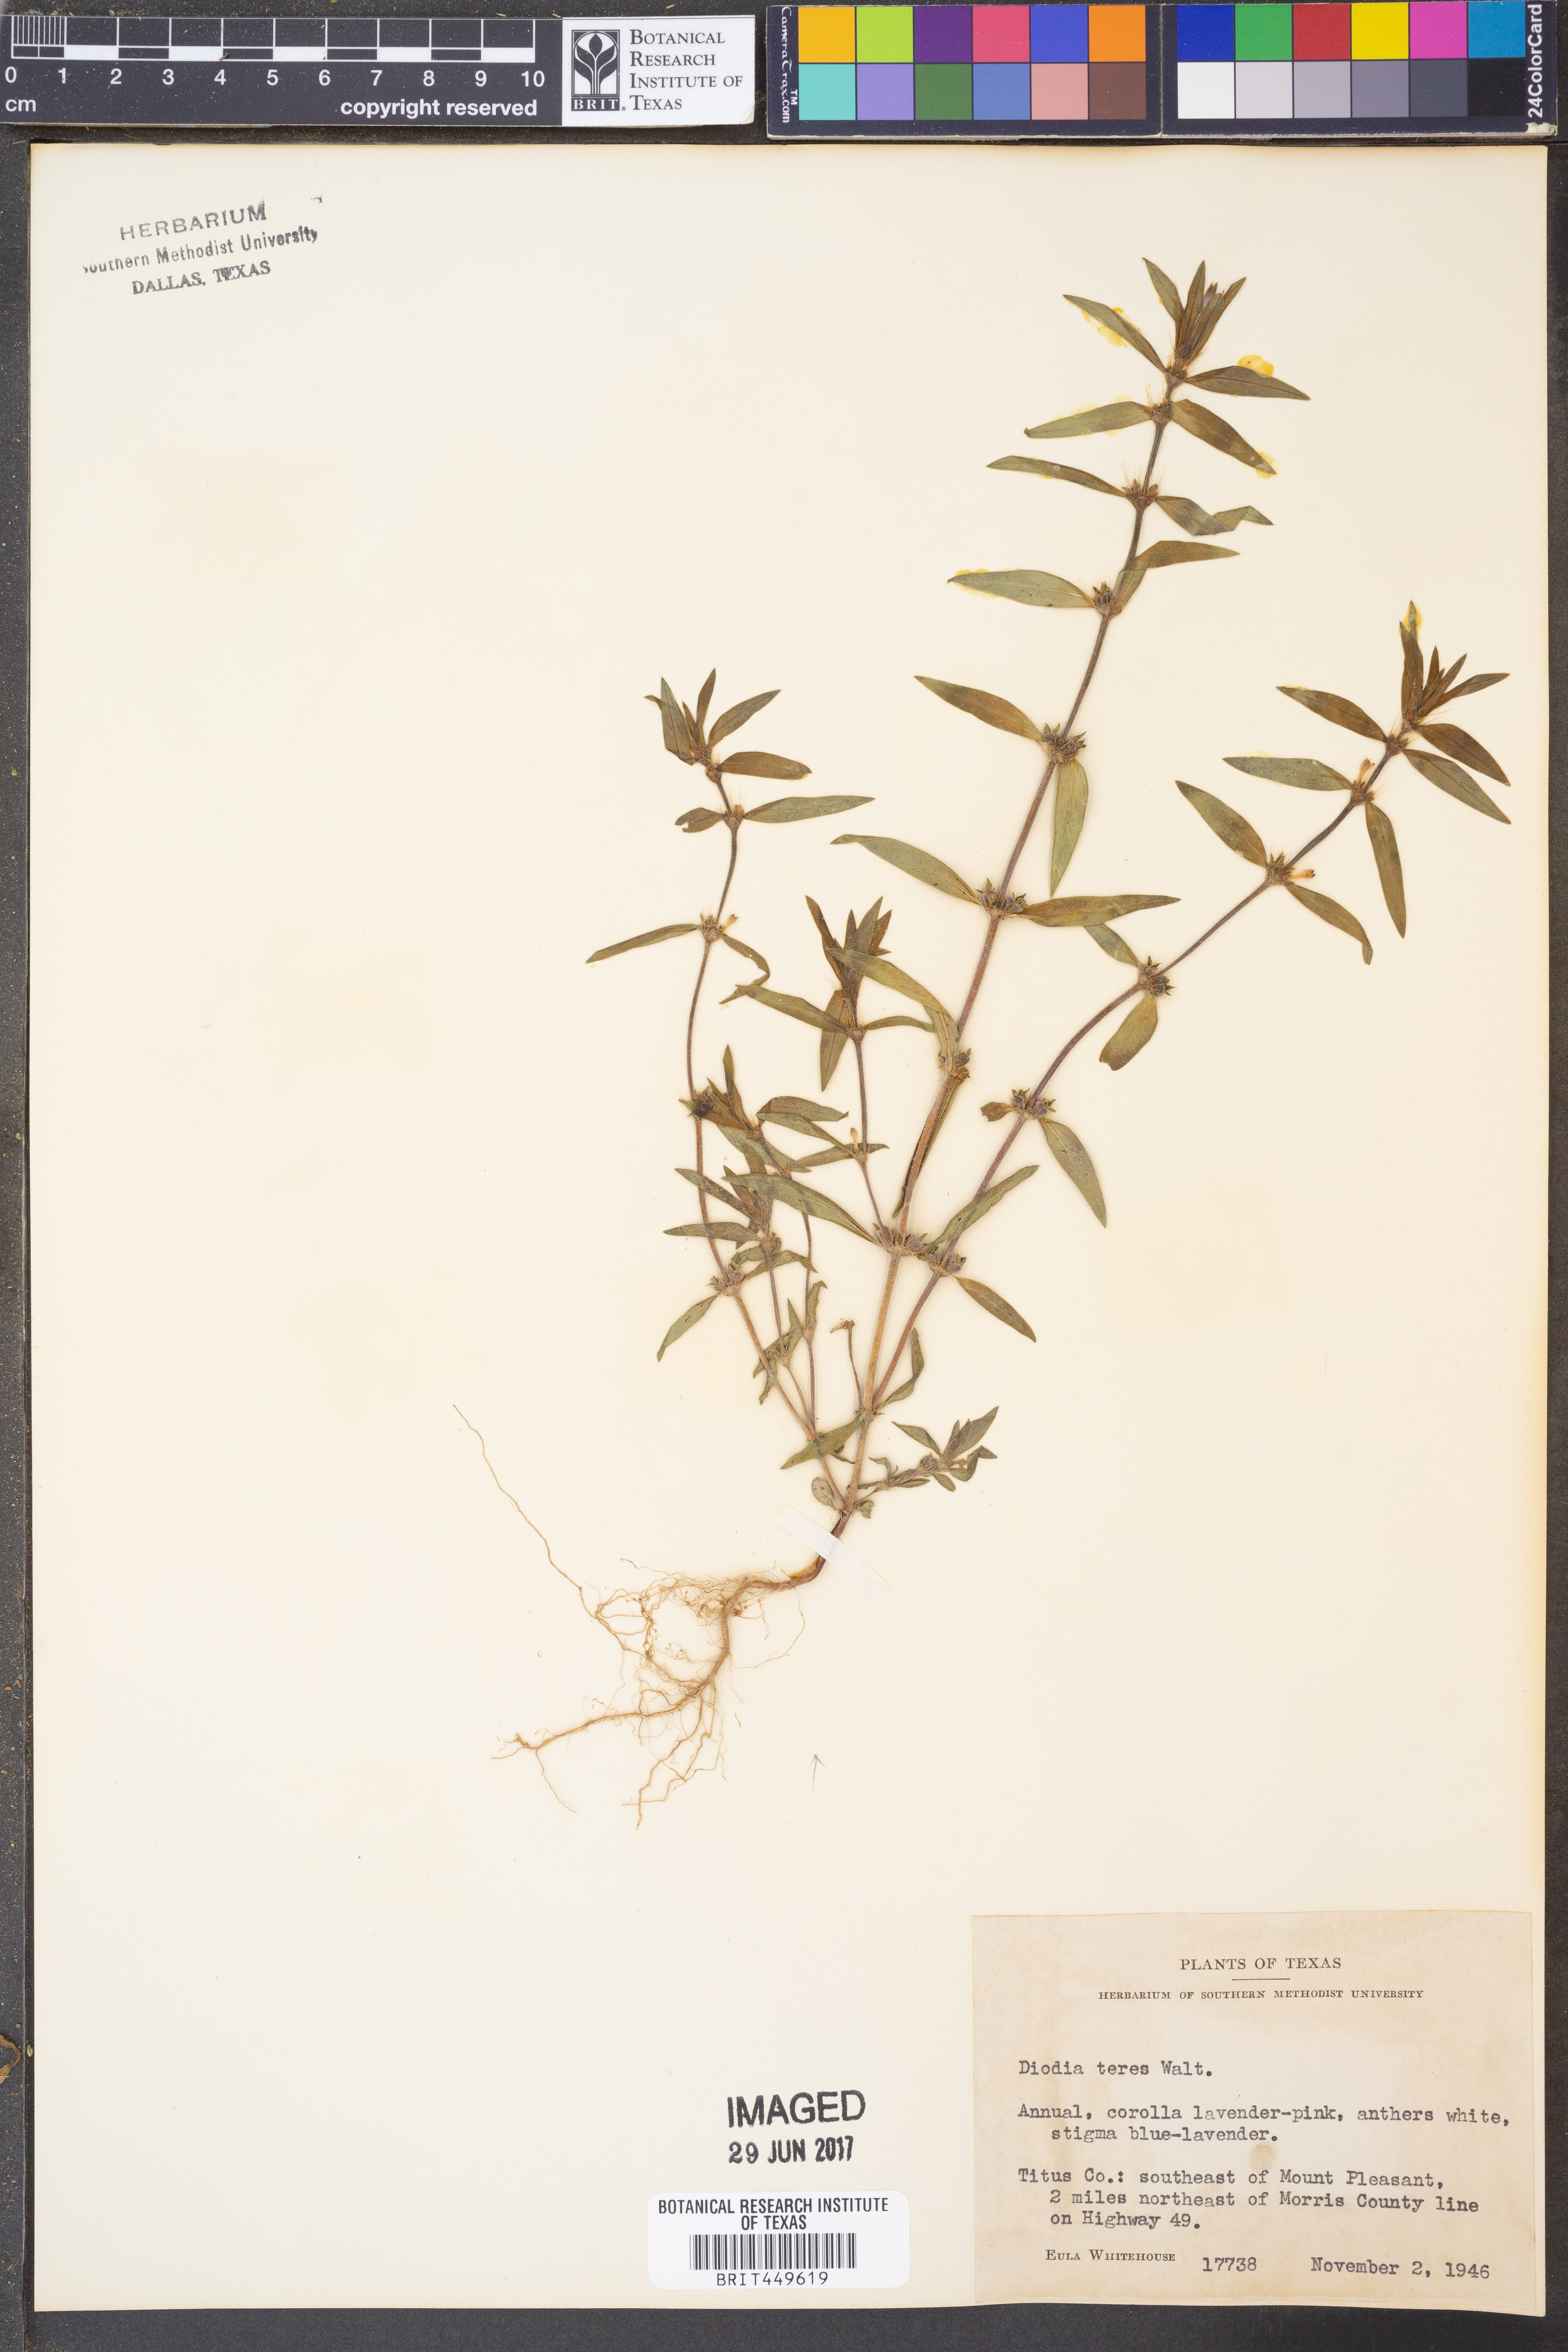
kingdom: Plantae
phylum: Tracheophyta
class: Magnoliopsida
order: Gentianales
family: Rubiaceae
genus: Hexasepalum
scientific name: Hexasepalum teres
